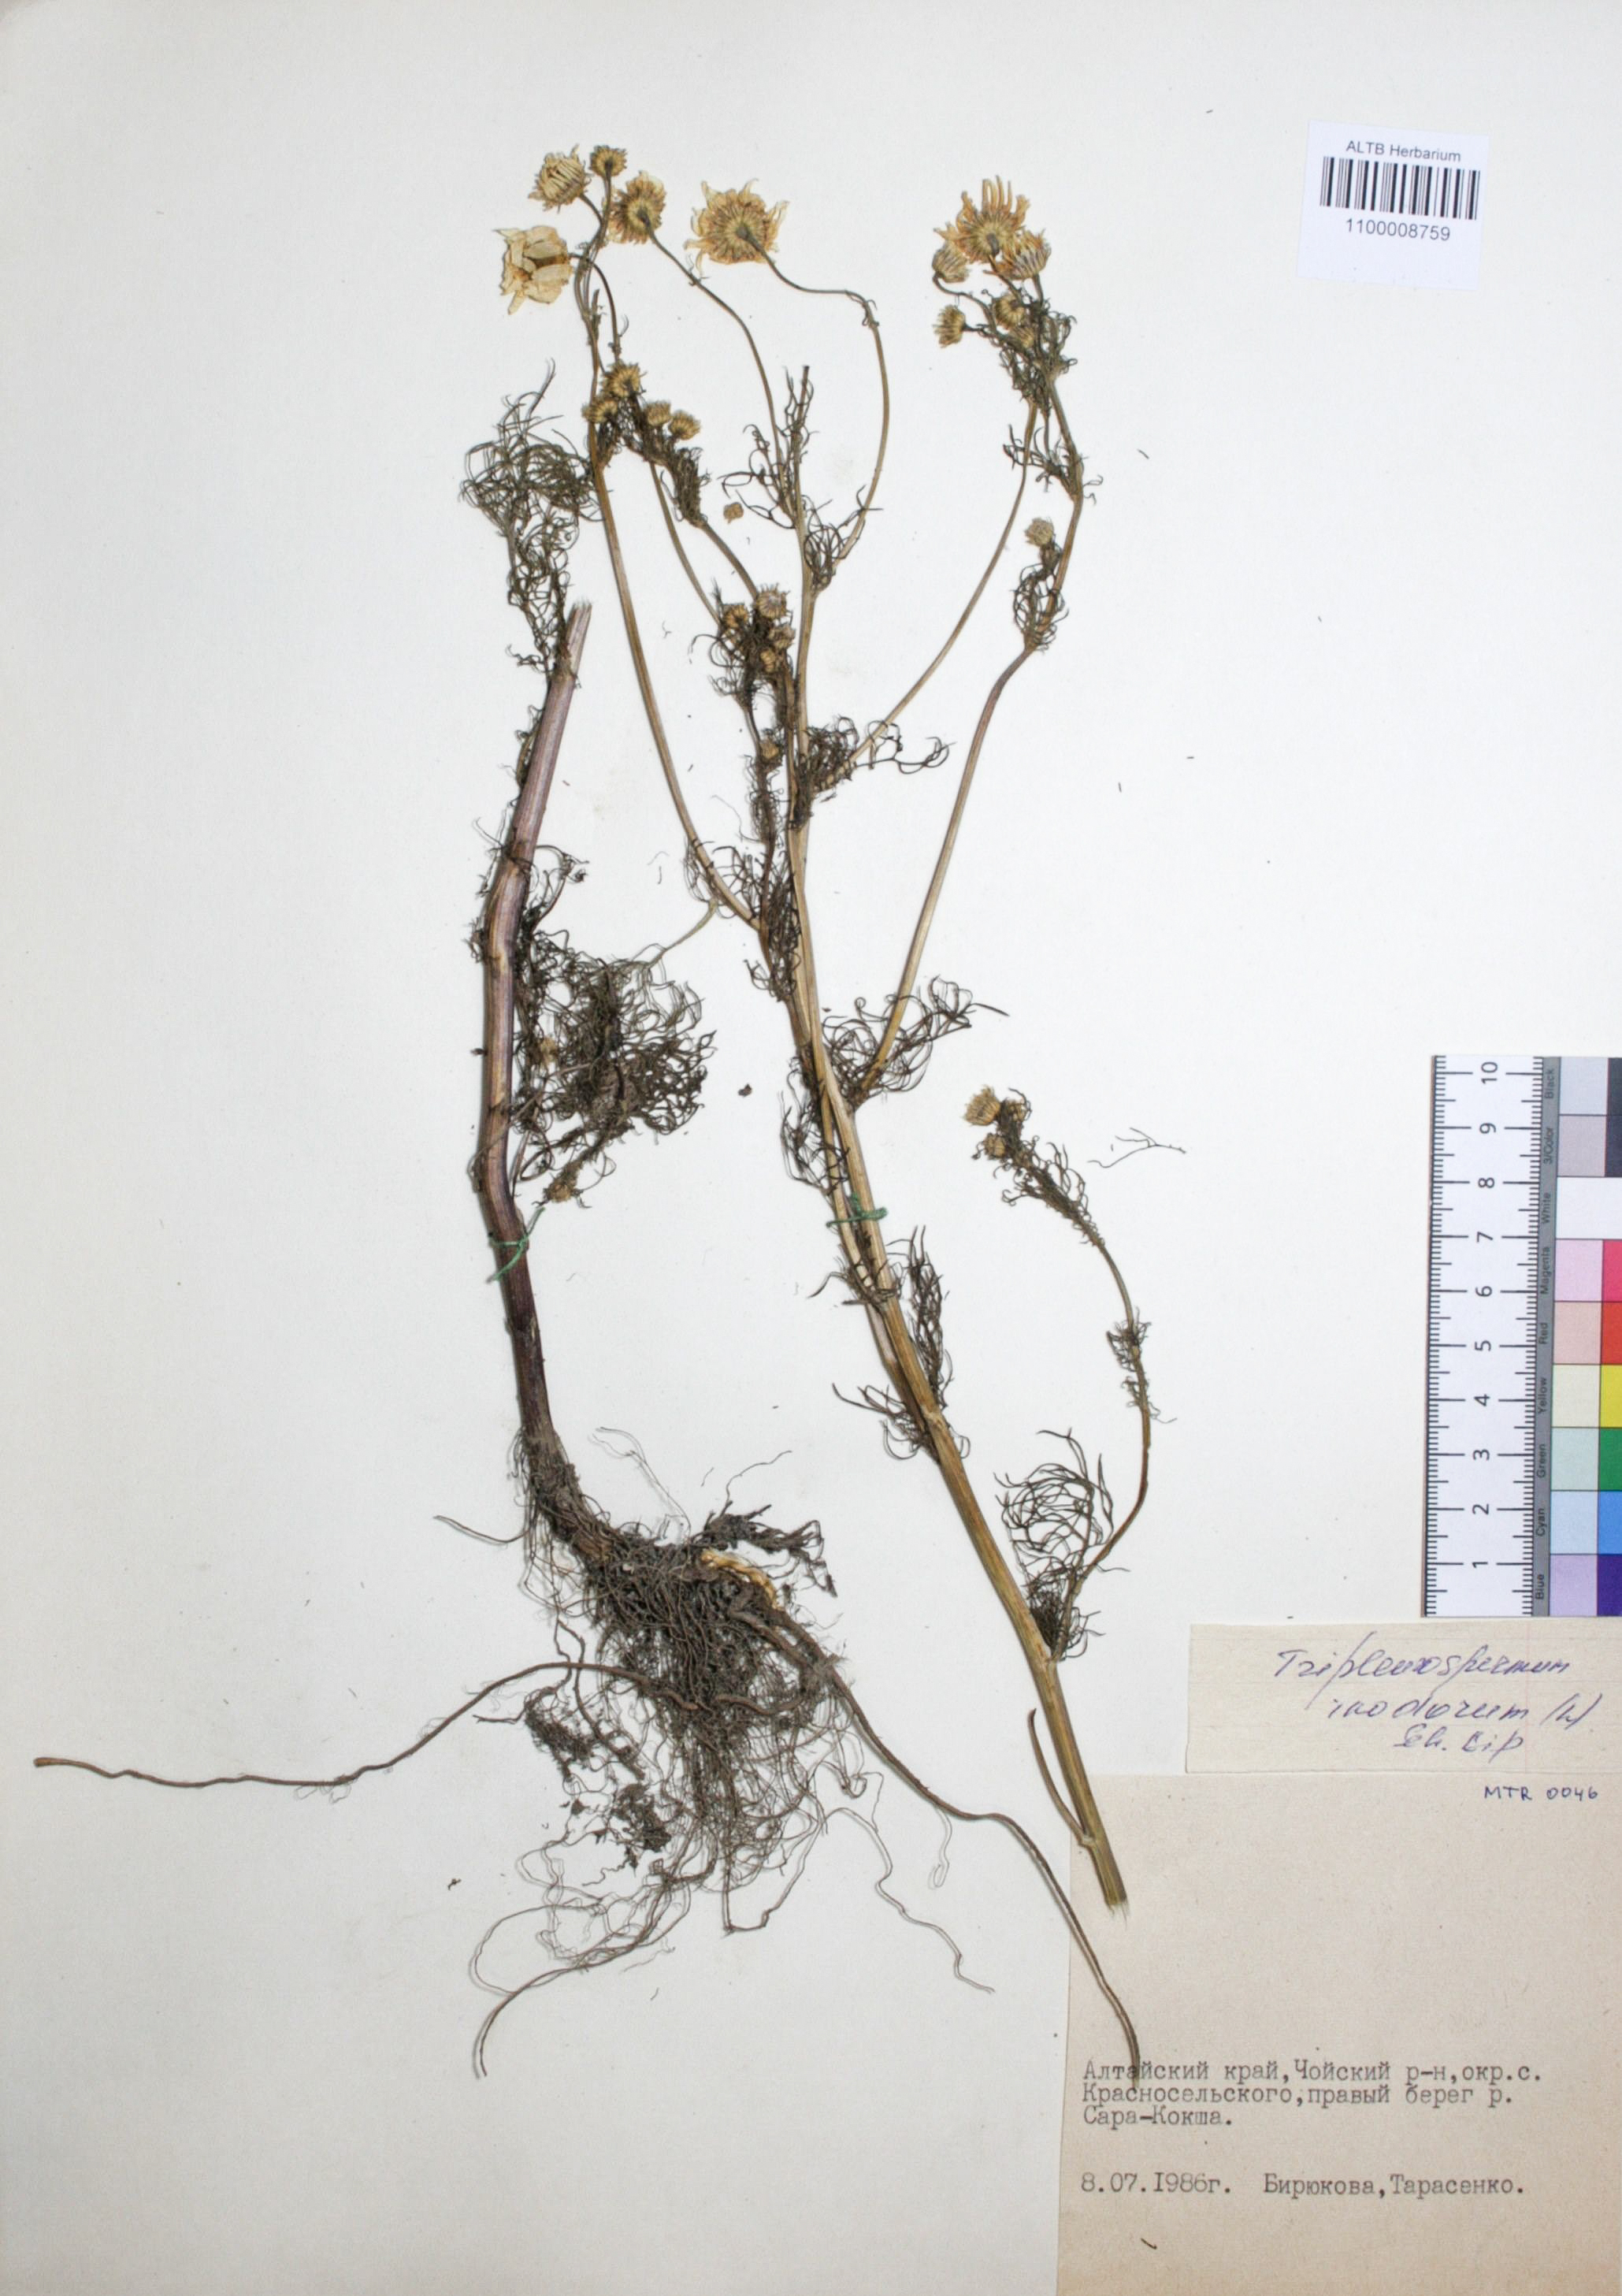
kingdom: Plantae
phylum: Tracheophyta
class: Magnoliopsida
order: Asterales
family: Asteraceae
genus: Tripleurospermum
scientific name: Tripleurospermum inodorum
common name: Scentless mayweed
